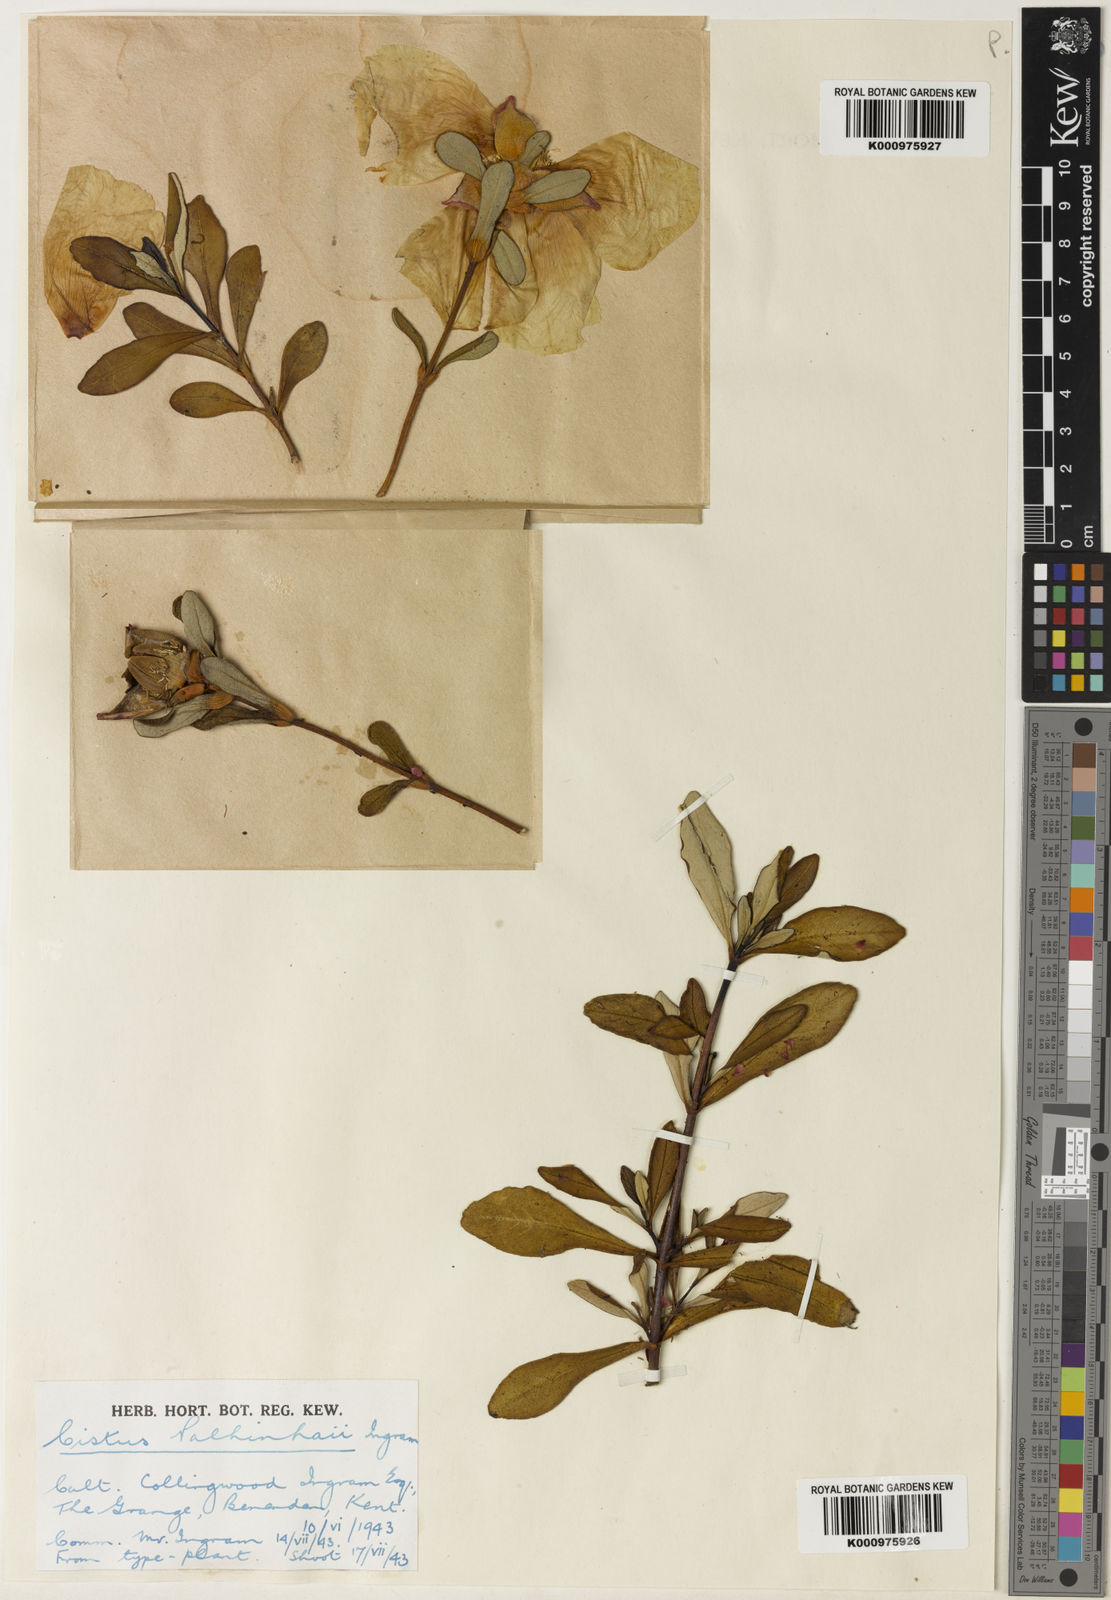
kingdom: Plantae
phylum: Tracheophyta
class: Magnoliopsida
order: Malvales
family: Cistaceae
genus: Cistus
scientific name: Cistus ladanifer
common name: Common gum cistus
